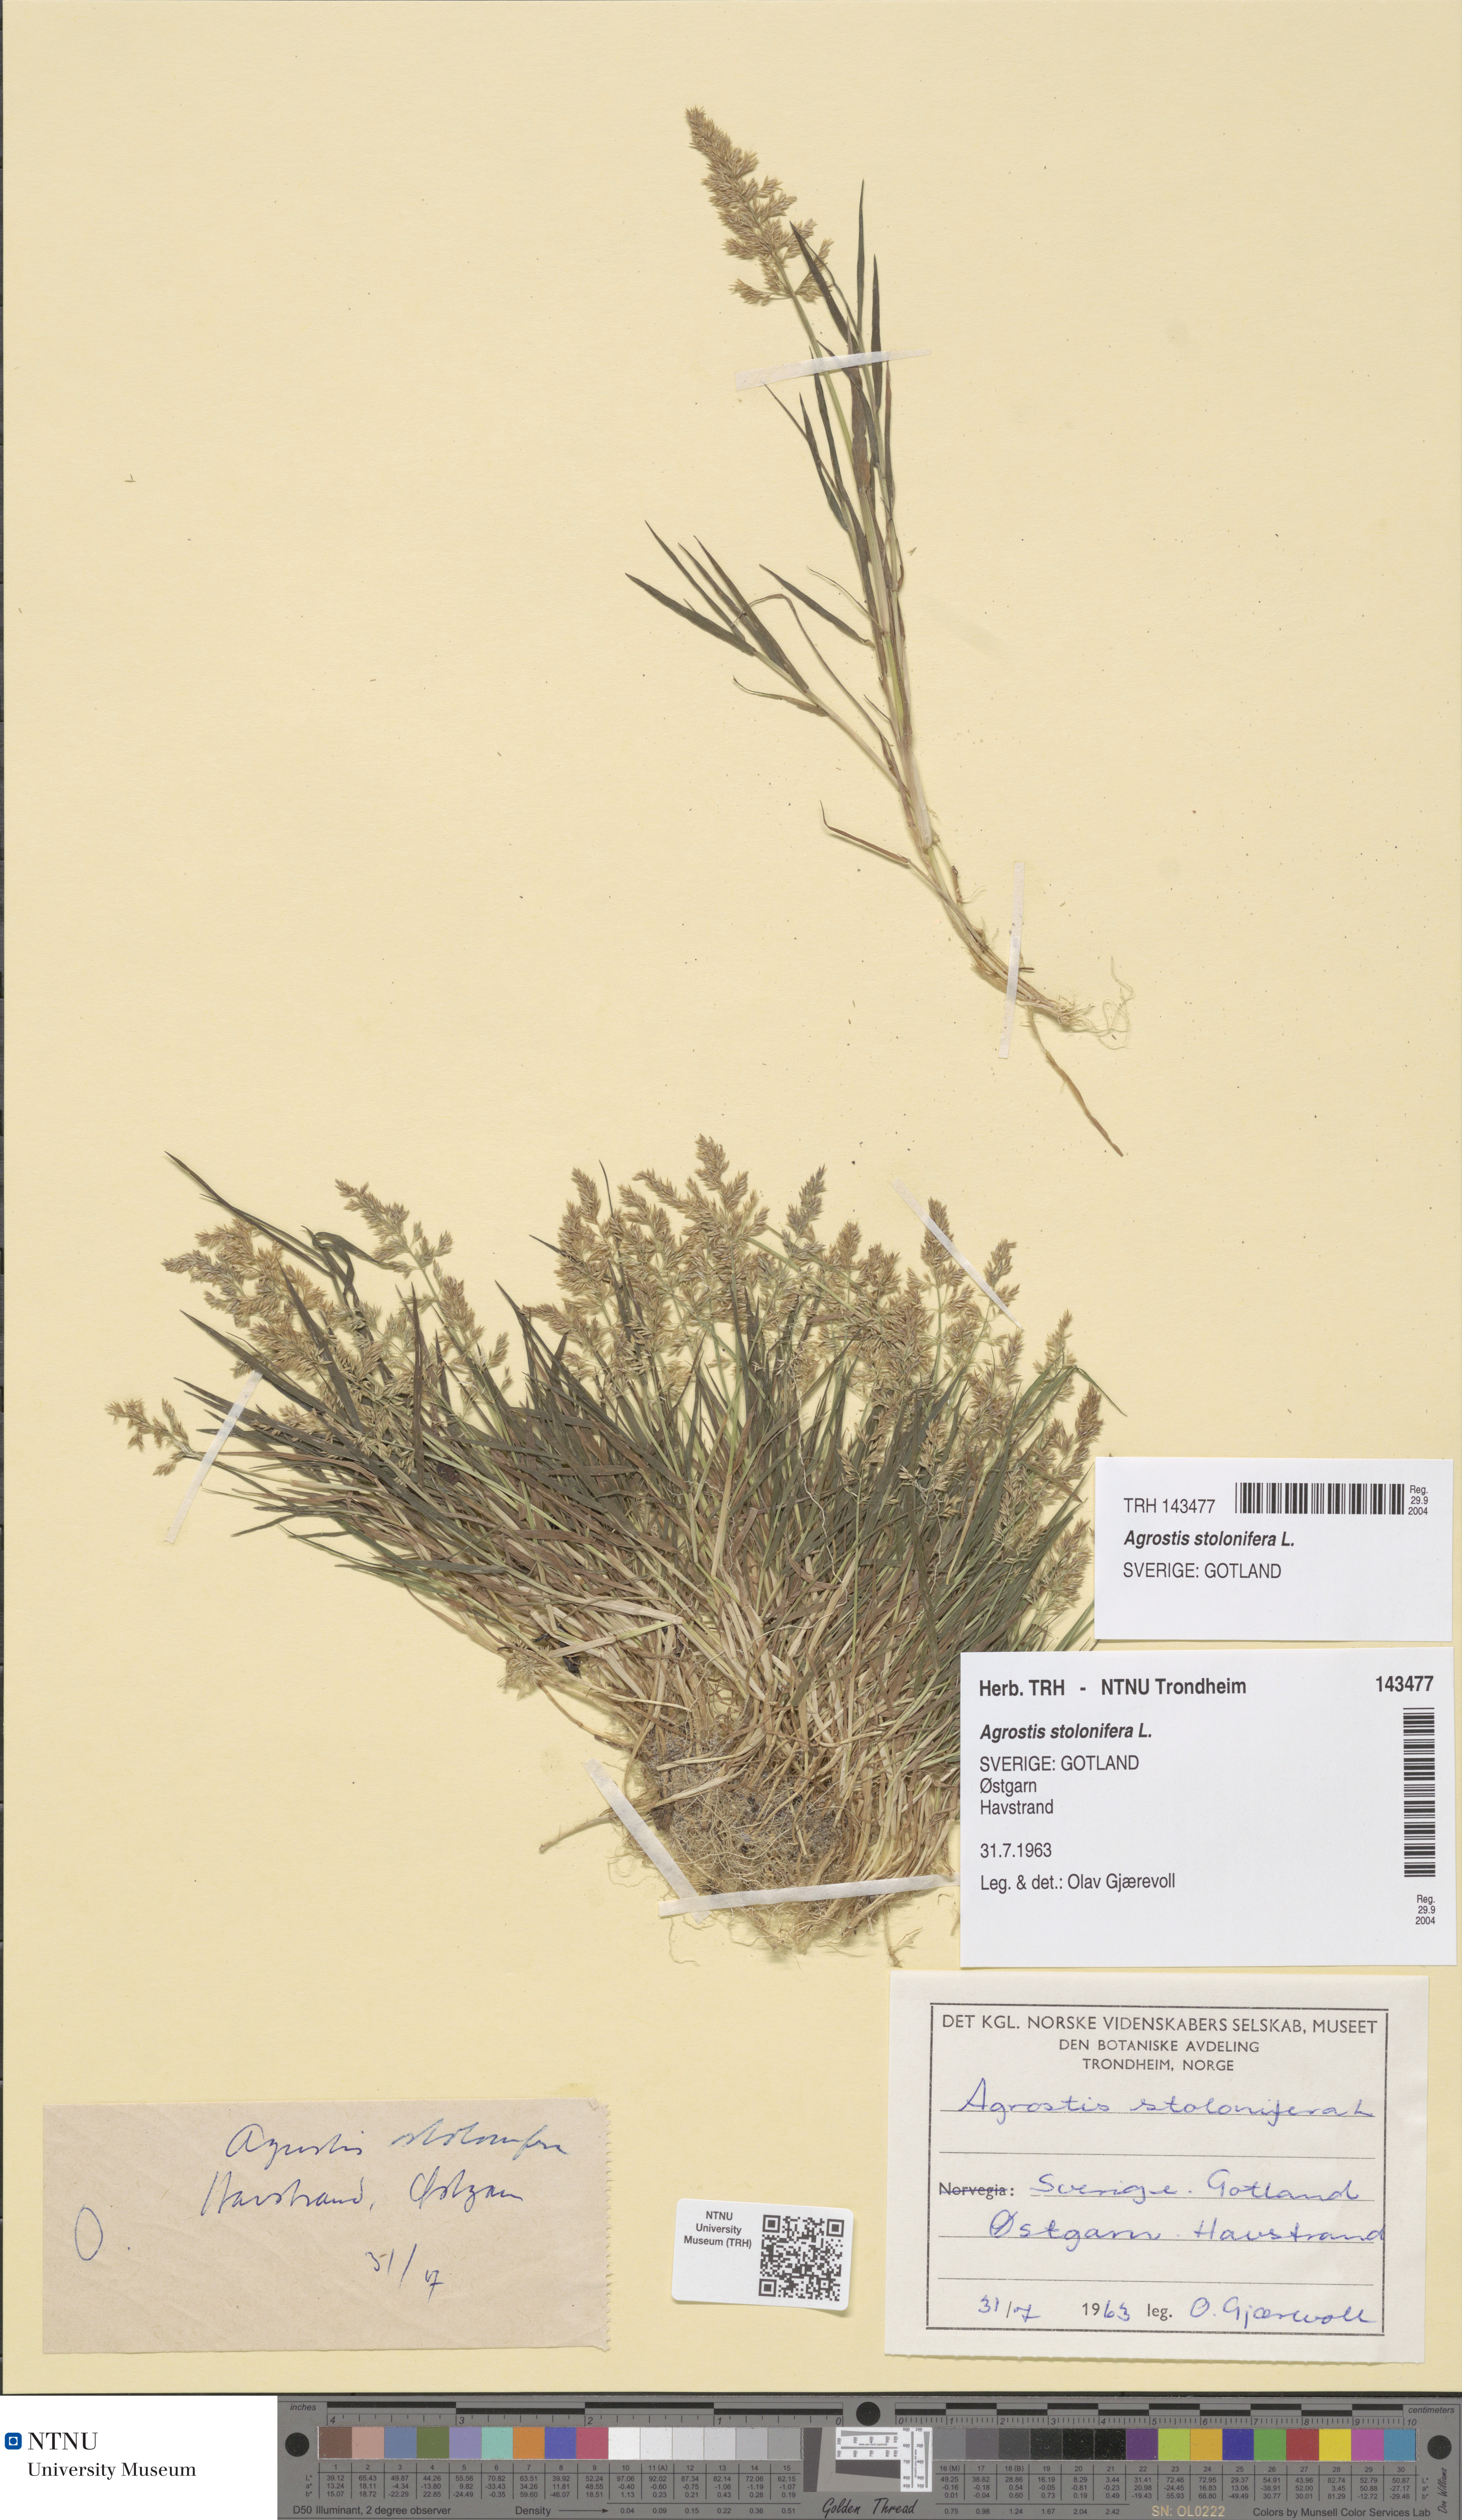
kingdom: Plantae
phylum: Tracheophyta
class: Liliopsida
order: Poales
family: Poaceae
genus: Agrostis
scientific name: Agrostis stolonifera
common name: Creeping bentgrass
